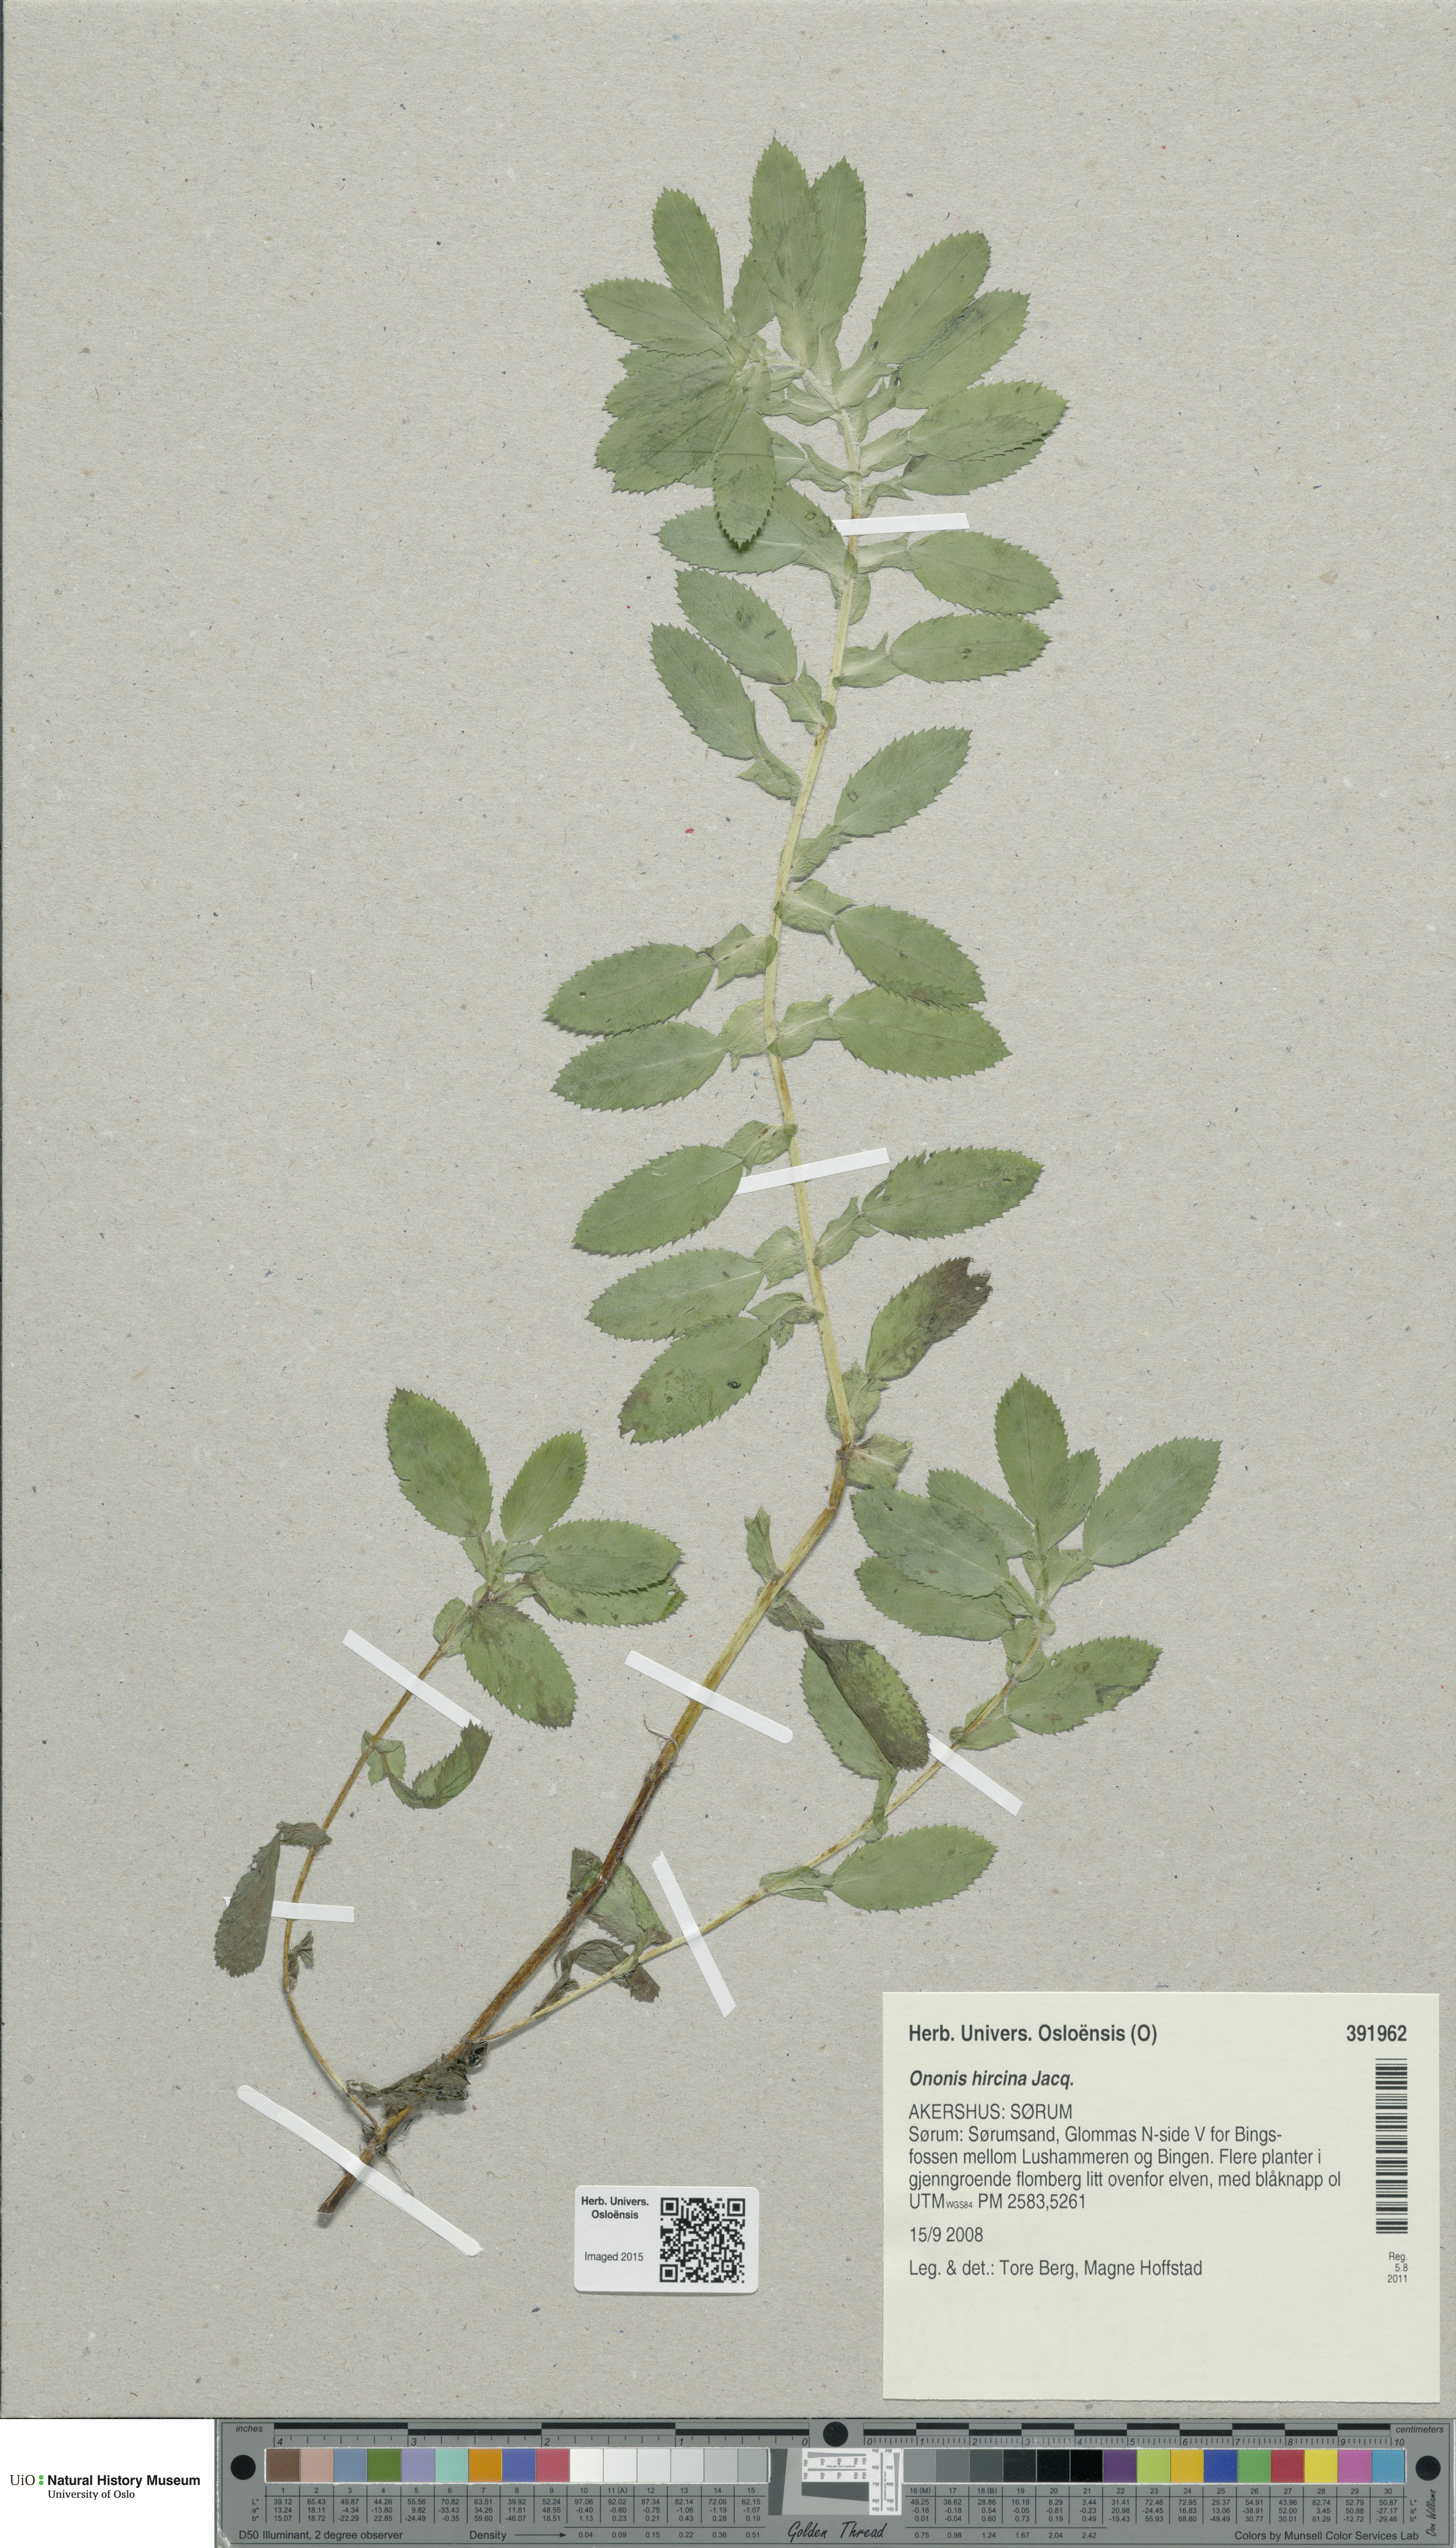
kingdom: Plantae
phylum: Tracheophyta
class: Magnoliopsida
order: Fabales
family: Fabaceae
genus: Ononis
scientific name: Ononis arvensis
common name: Field restharrow
